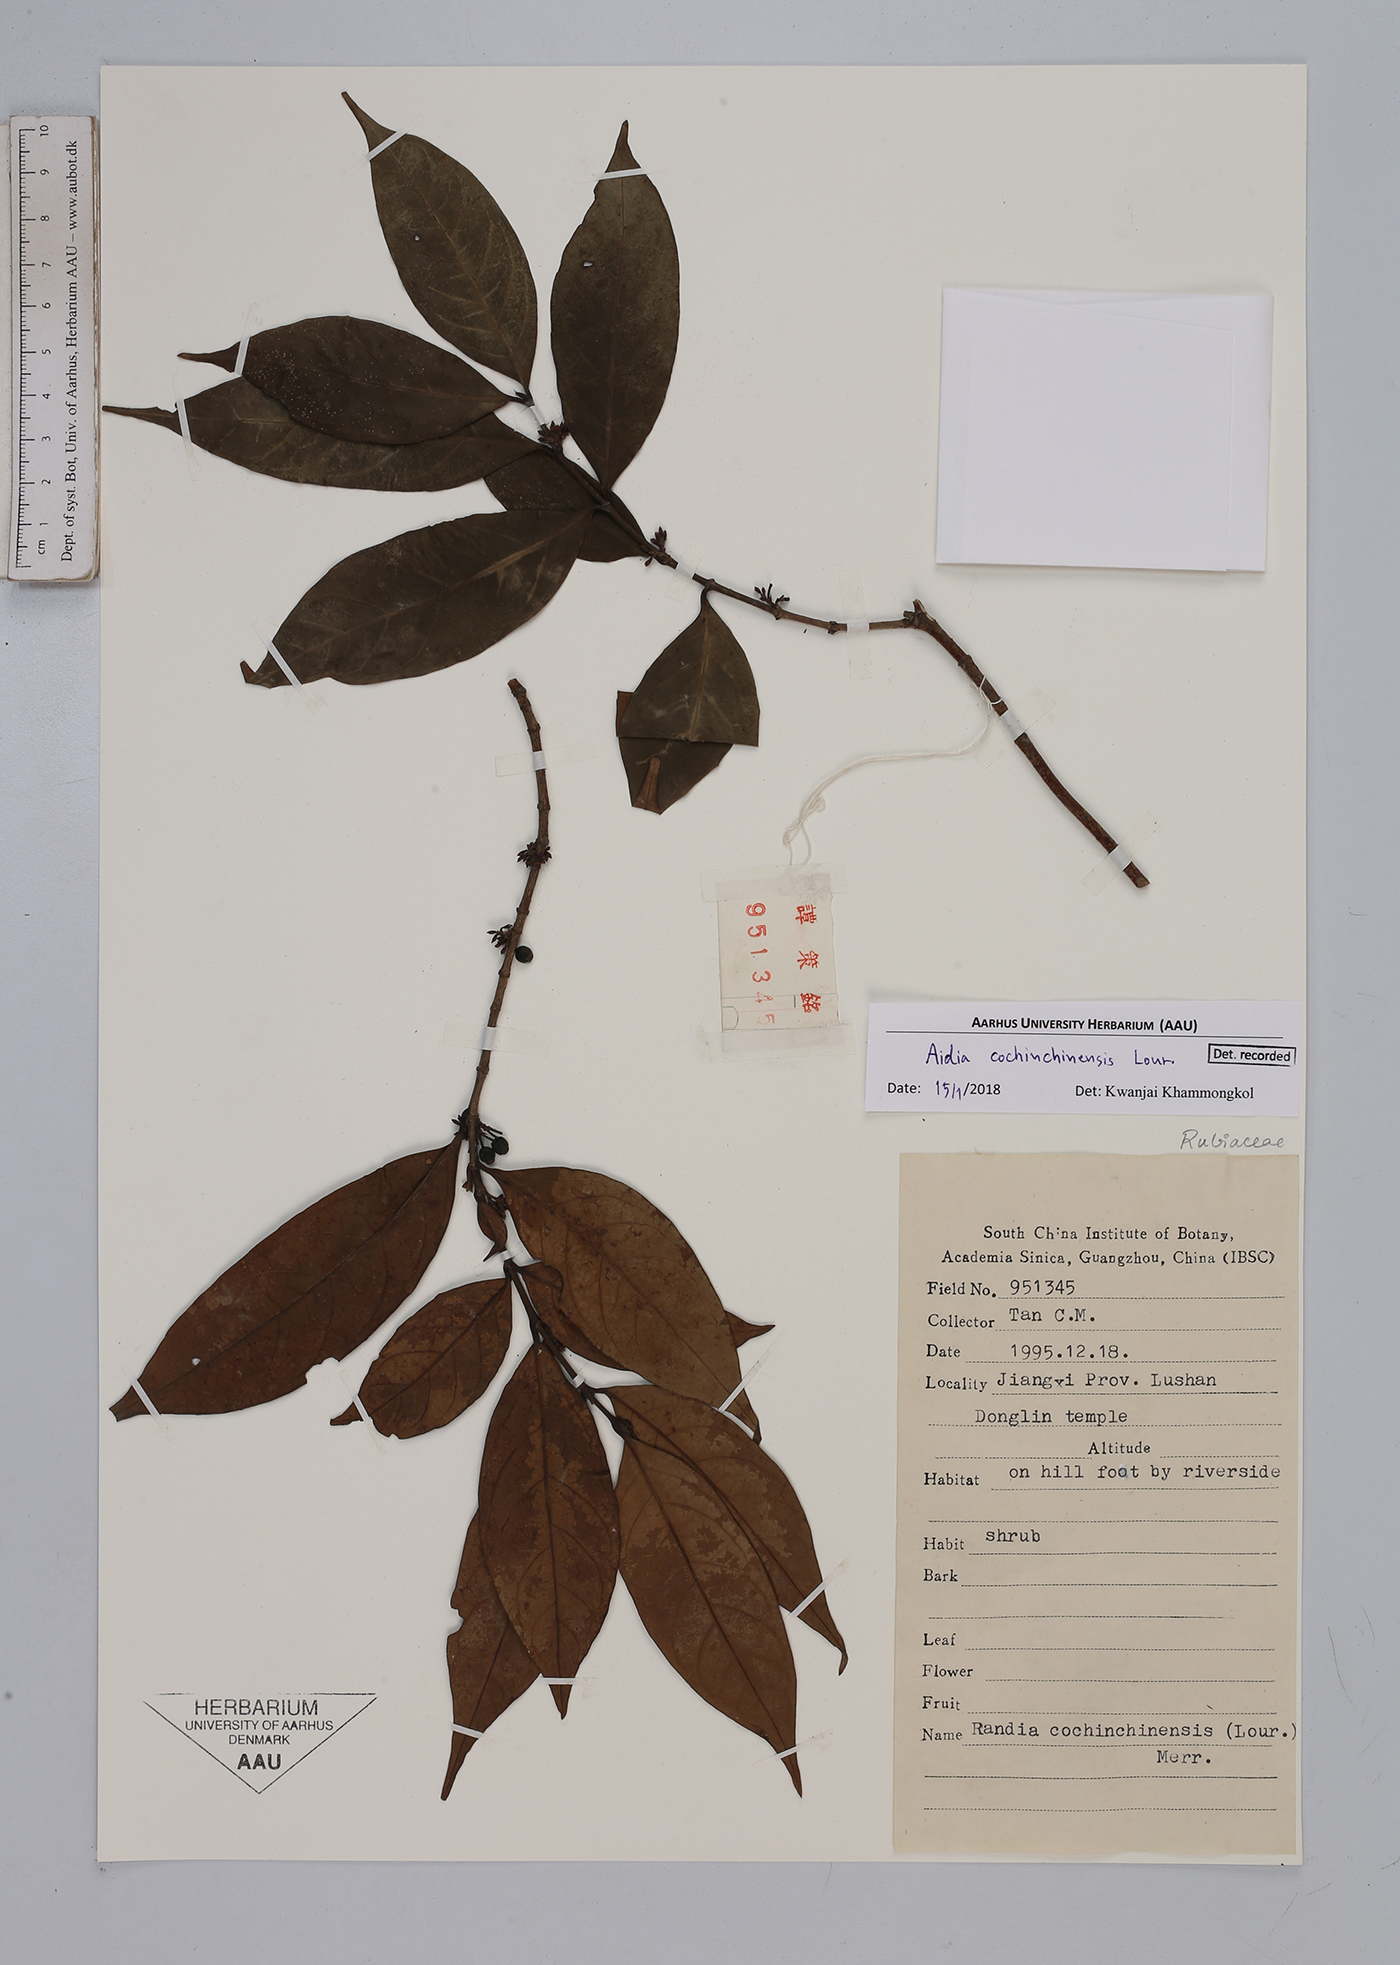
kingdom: Plantae
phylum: Tracheophyta
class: Magnoliopsida
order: Gentianales
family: Rubiaceae
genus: Aidia
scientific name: Aidia cochinchinensis
